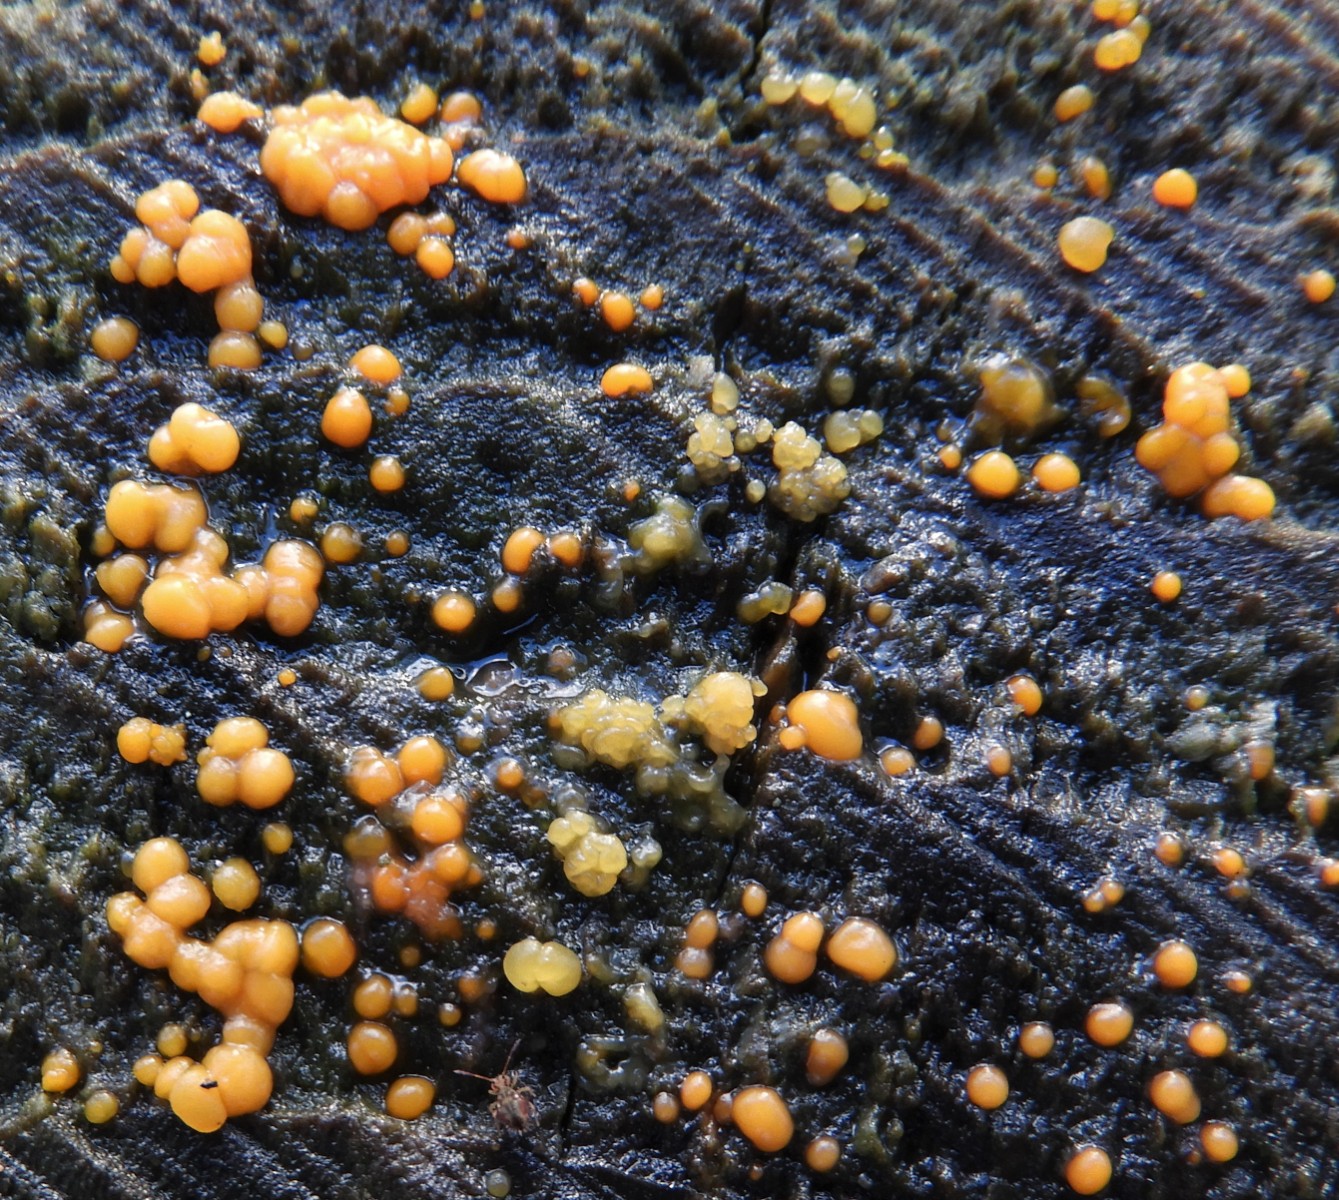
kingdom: Fungi
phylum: Basidiomycota
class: Dacrymycetes
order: Dacrymycetales
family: Dacrymycetaceae
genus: Dacrymyces
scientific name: Dacrymyces stillatus
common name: almindelig tåresvamp
